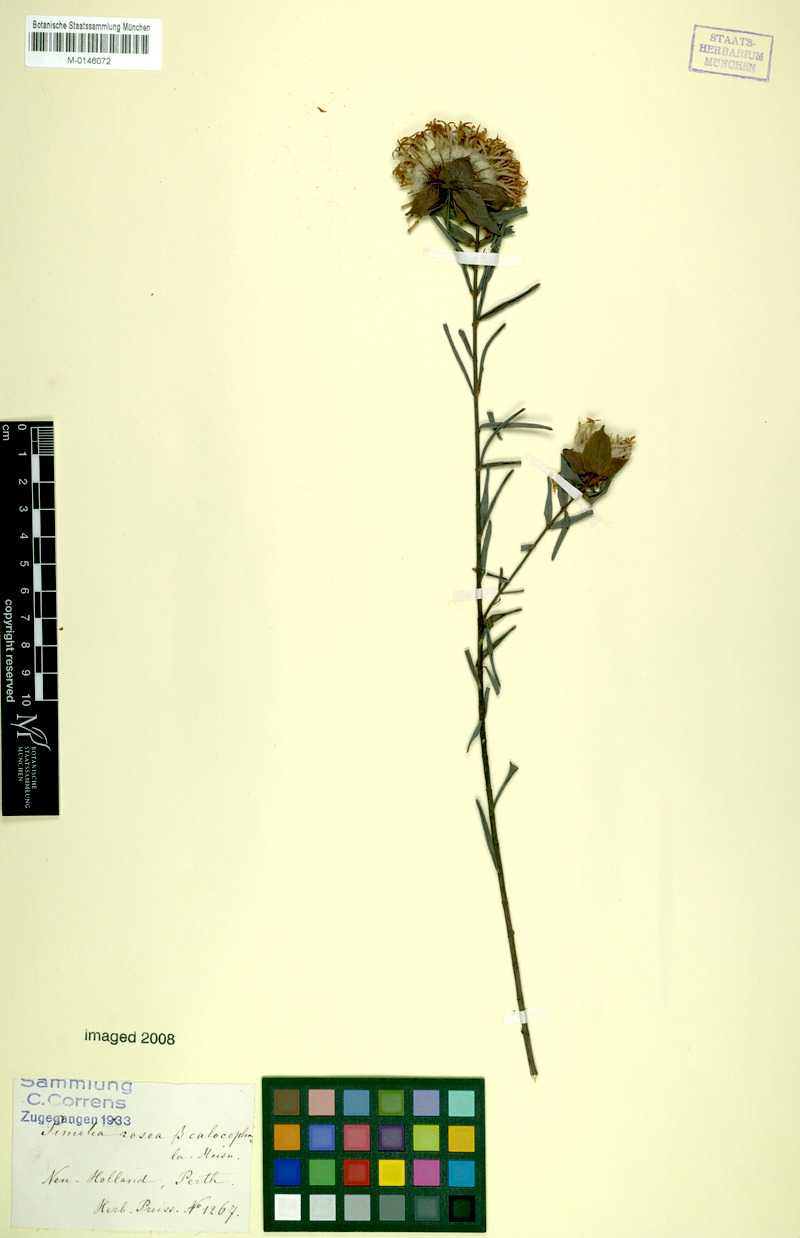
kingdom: Plantae
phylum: Tracheophyta
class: Magnoliopsida
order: Malvales
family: Thymelaeaceae
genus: Pimelea
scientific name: Pimelea rosea
